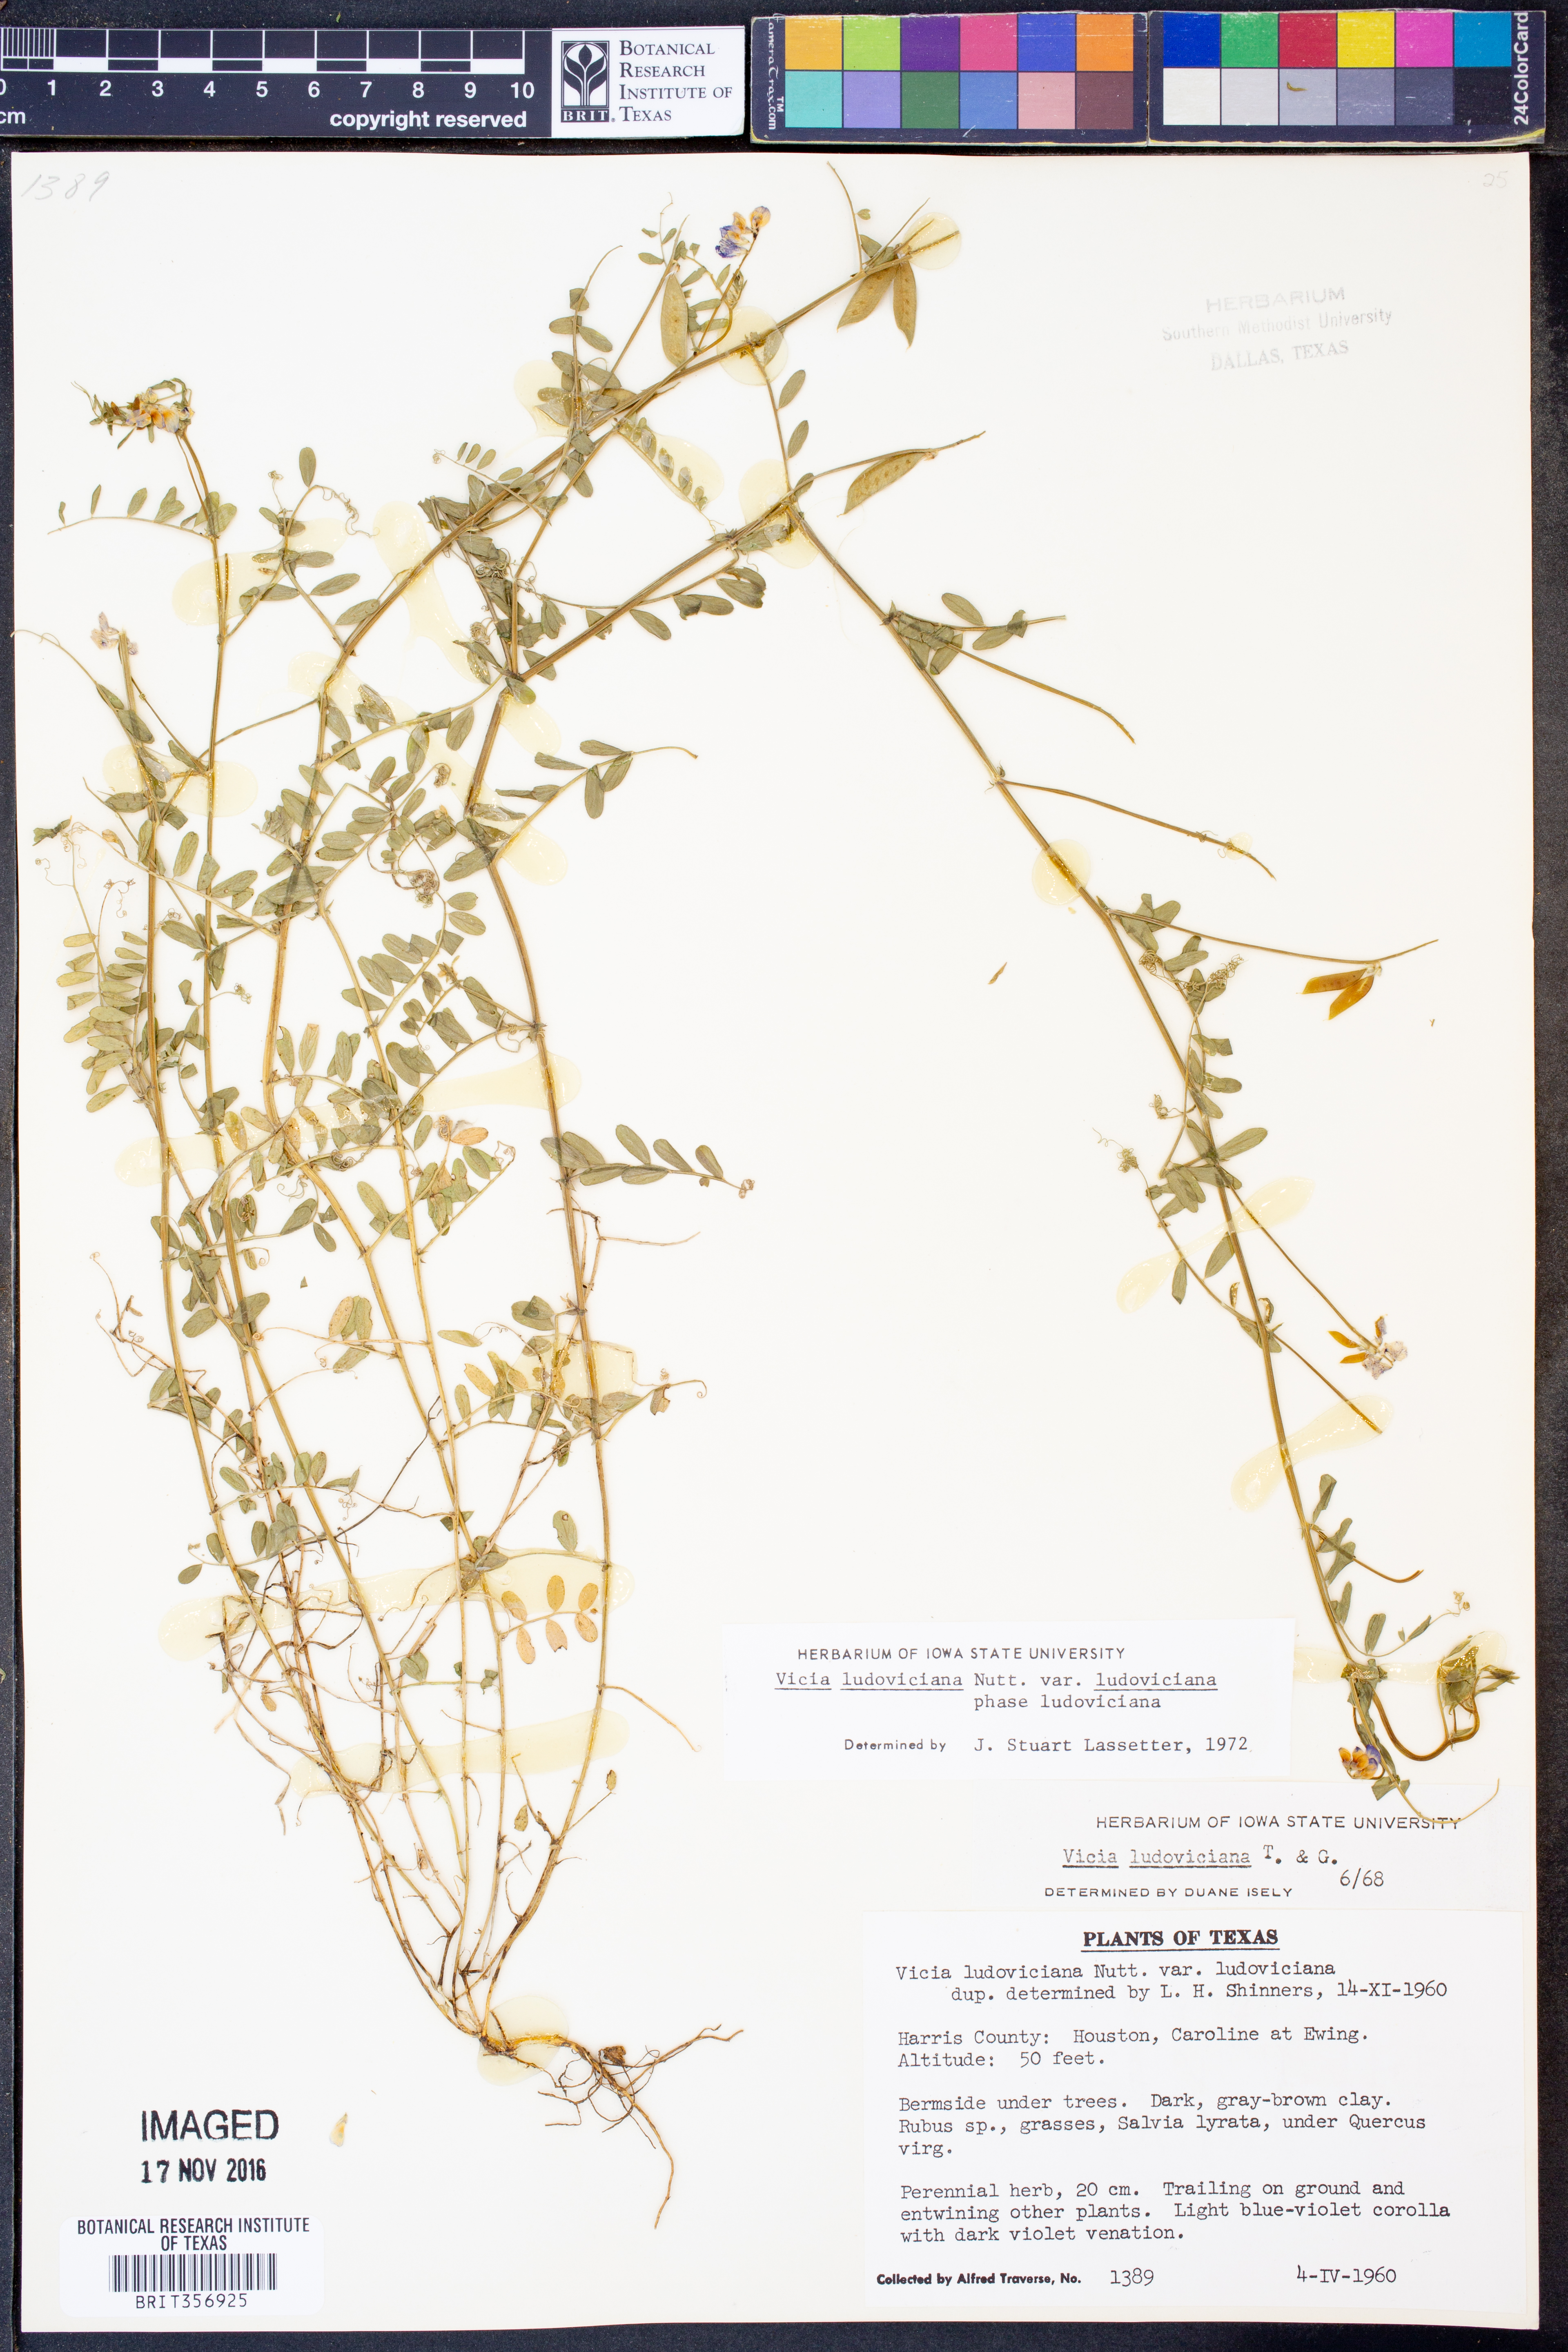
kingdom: Plantae
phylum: Tracheophyta
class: Magnoliopsida
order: Fabales
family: Fabaceae
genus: Vicia
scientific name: Vicia ludoviciana
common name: Louisiana vetch
